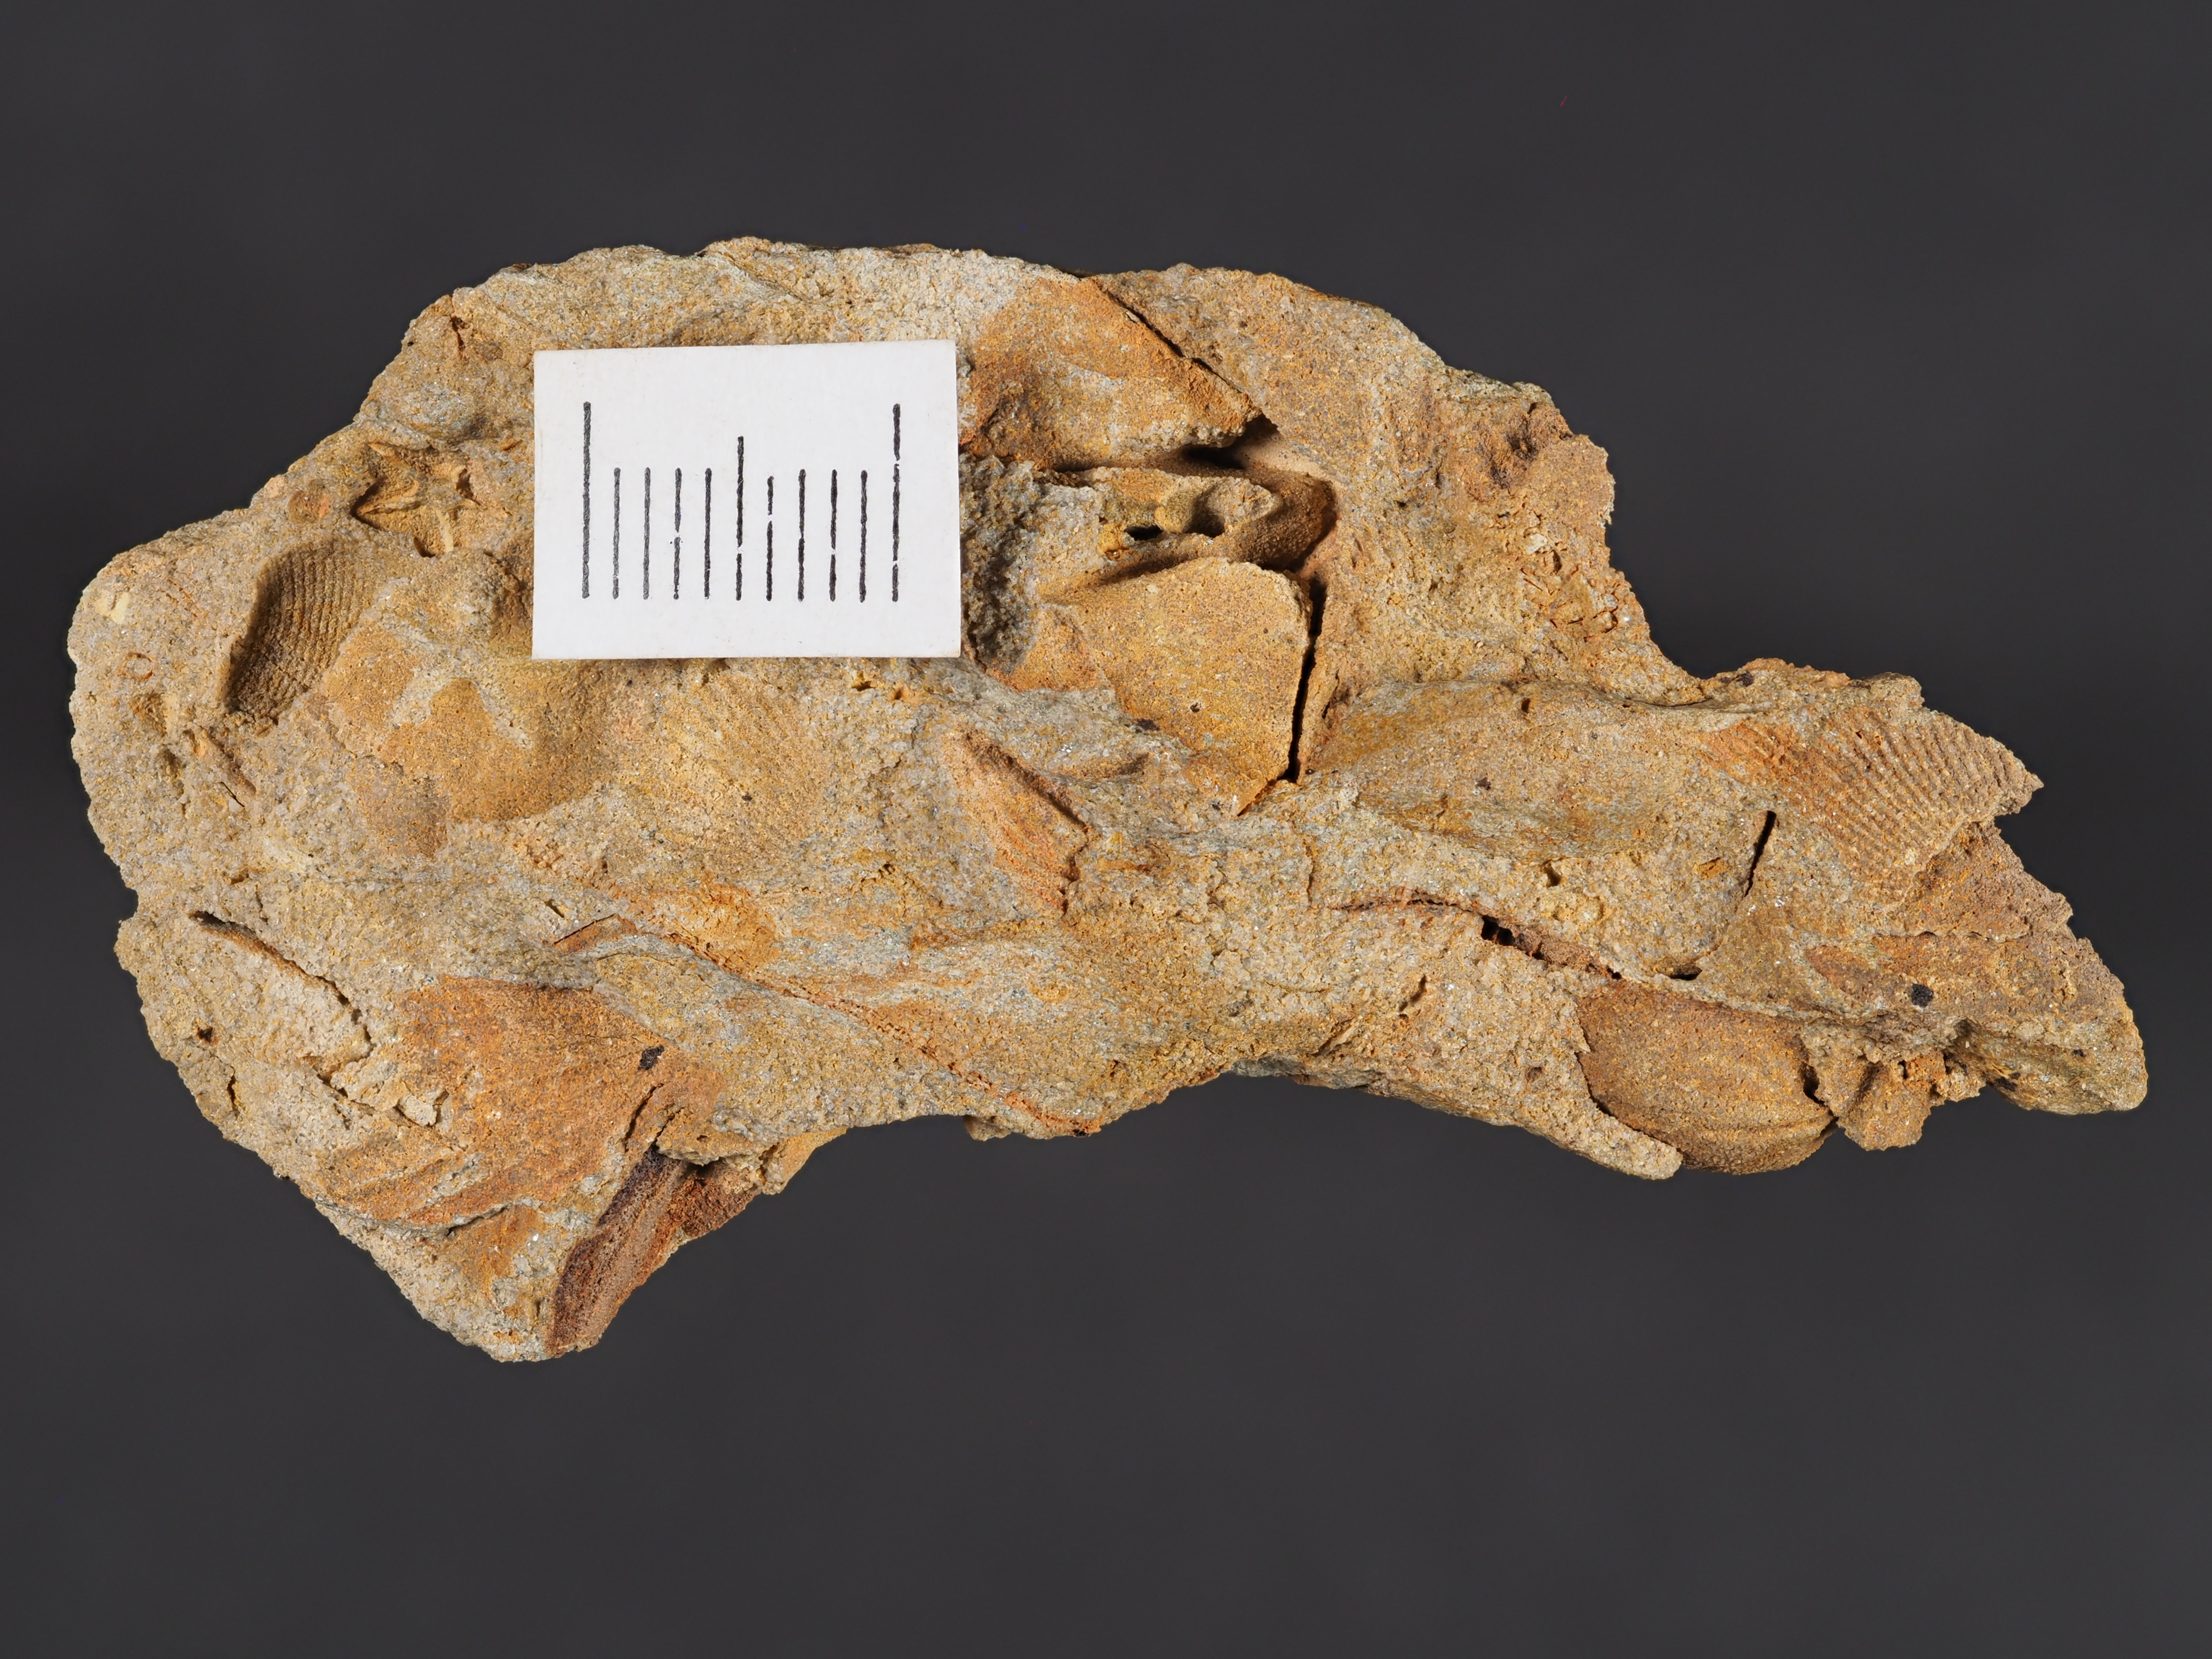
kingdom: Animalia
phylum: Brachiopoda
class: Rhynchonellata
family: Rhipidomellidae
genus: Platyorthis
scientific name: Platyorthis
